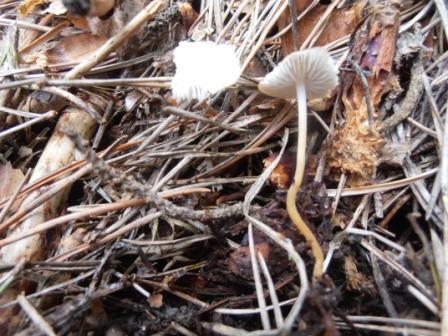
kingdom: Fungi
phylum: Basidiomycota
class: Agaricomycetes
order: Agaricales
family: Physalacriaceae
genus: Strobilurus
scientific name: Strobilurus tenacellus
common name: sommer-koglehat
